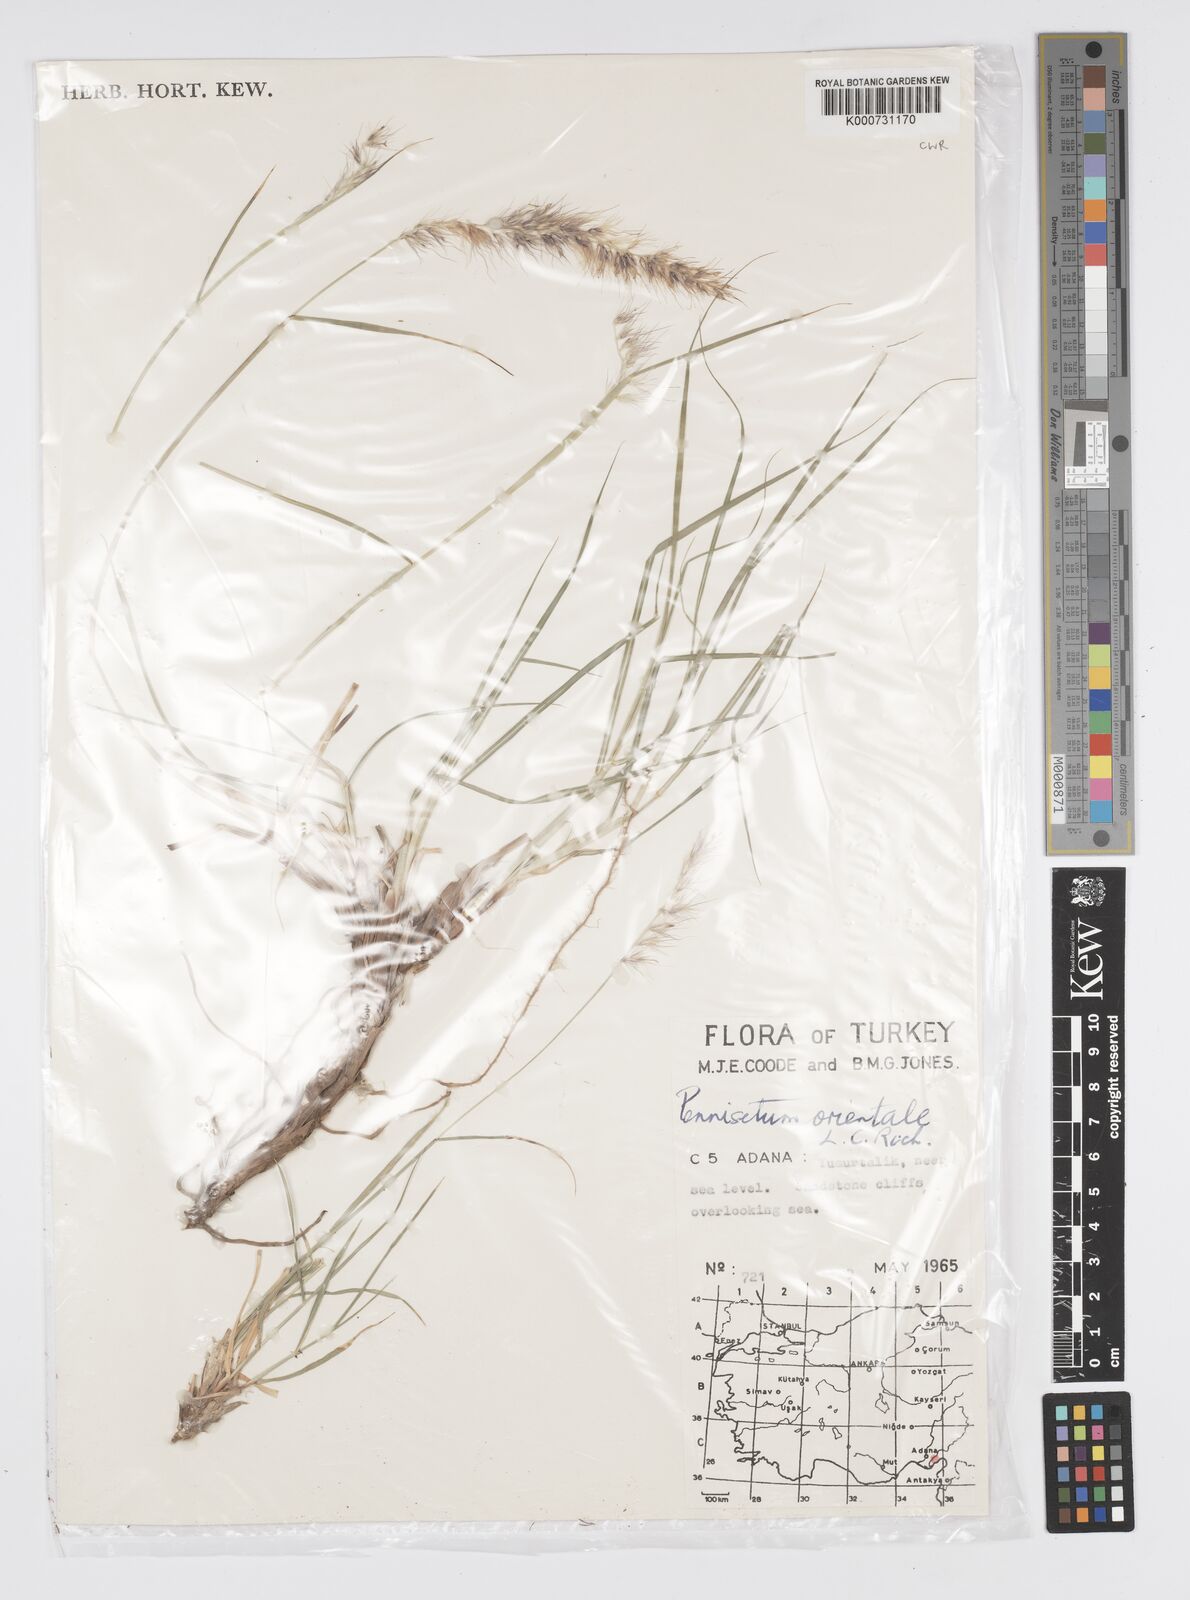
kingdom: Plantae
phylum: Tracheophyta
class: Liliopsida
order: Poales
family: Poaceae
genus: Cenchrus
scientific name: Cenchrus orientalis
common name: Oriental fountain grass
